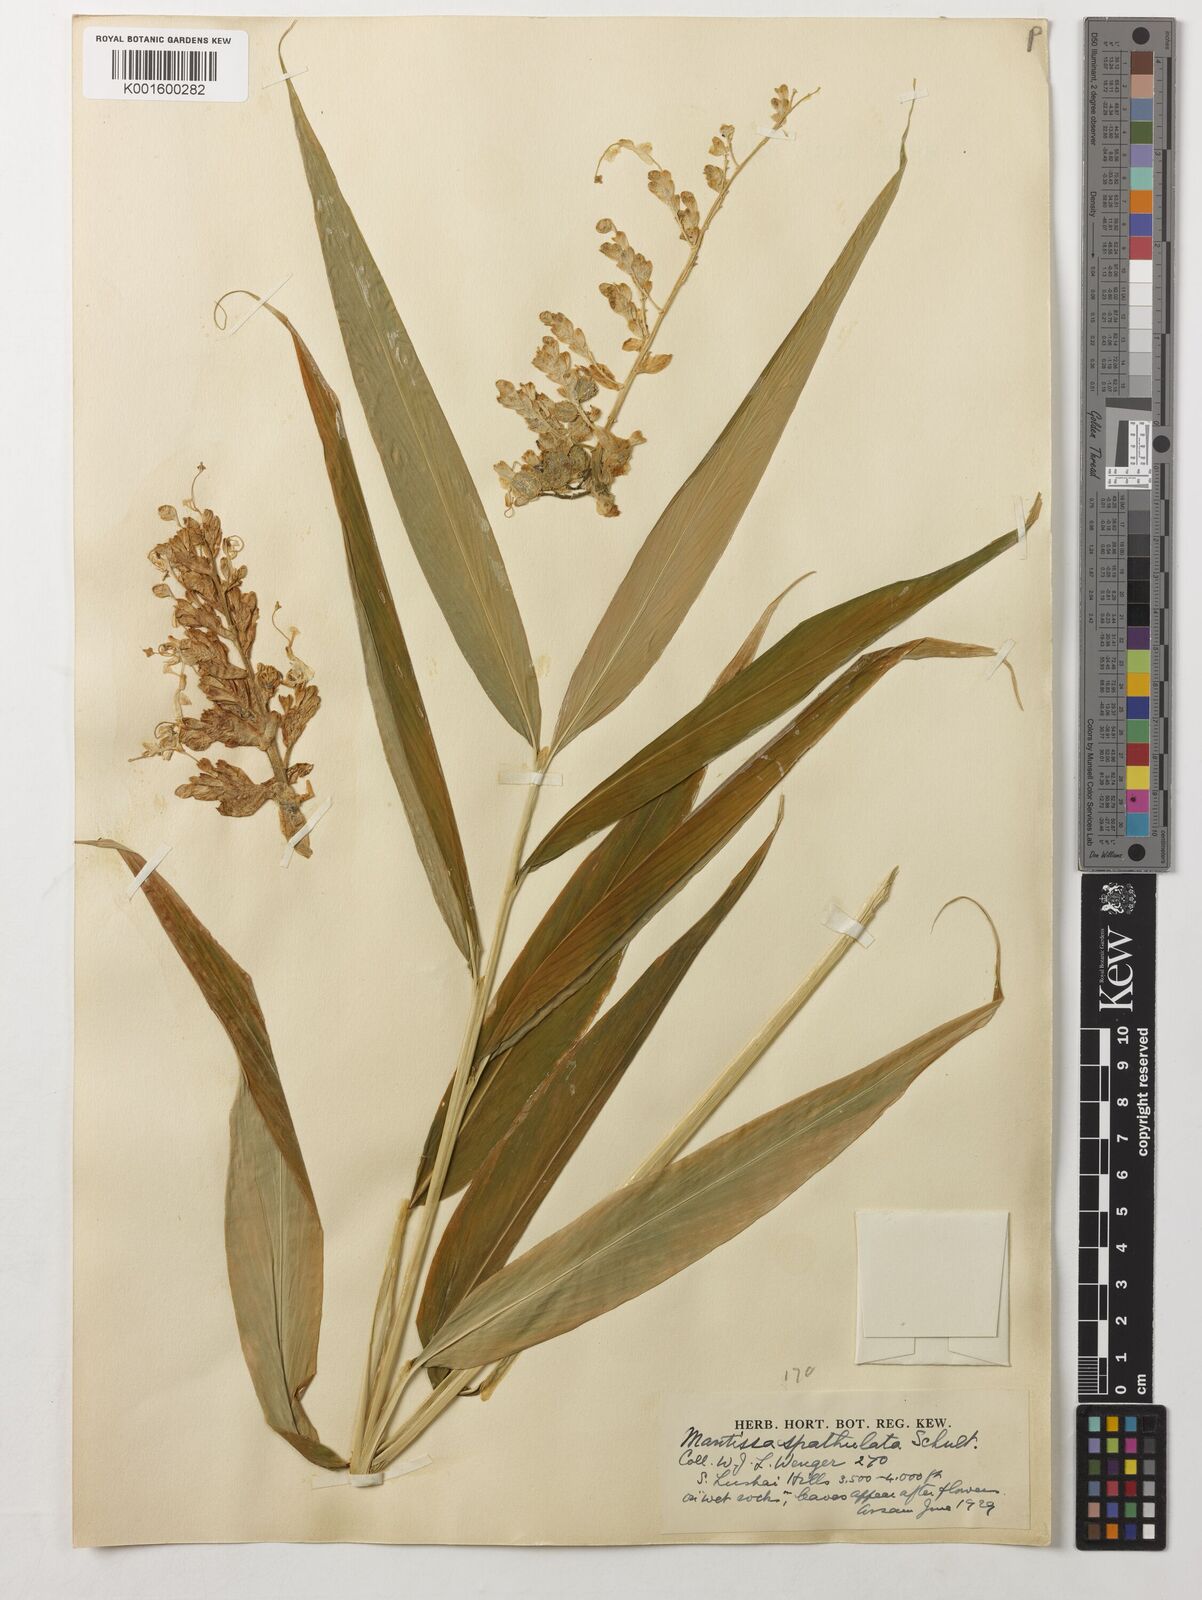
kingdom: Plantae
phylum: Tracheophyta
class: Liliopsida
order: Zingiberales
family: Zingiberaceae
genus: Globba
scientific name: Globba spathulata
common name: Dancing girl flower
